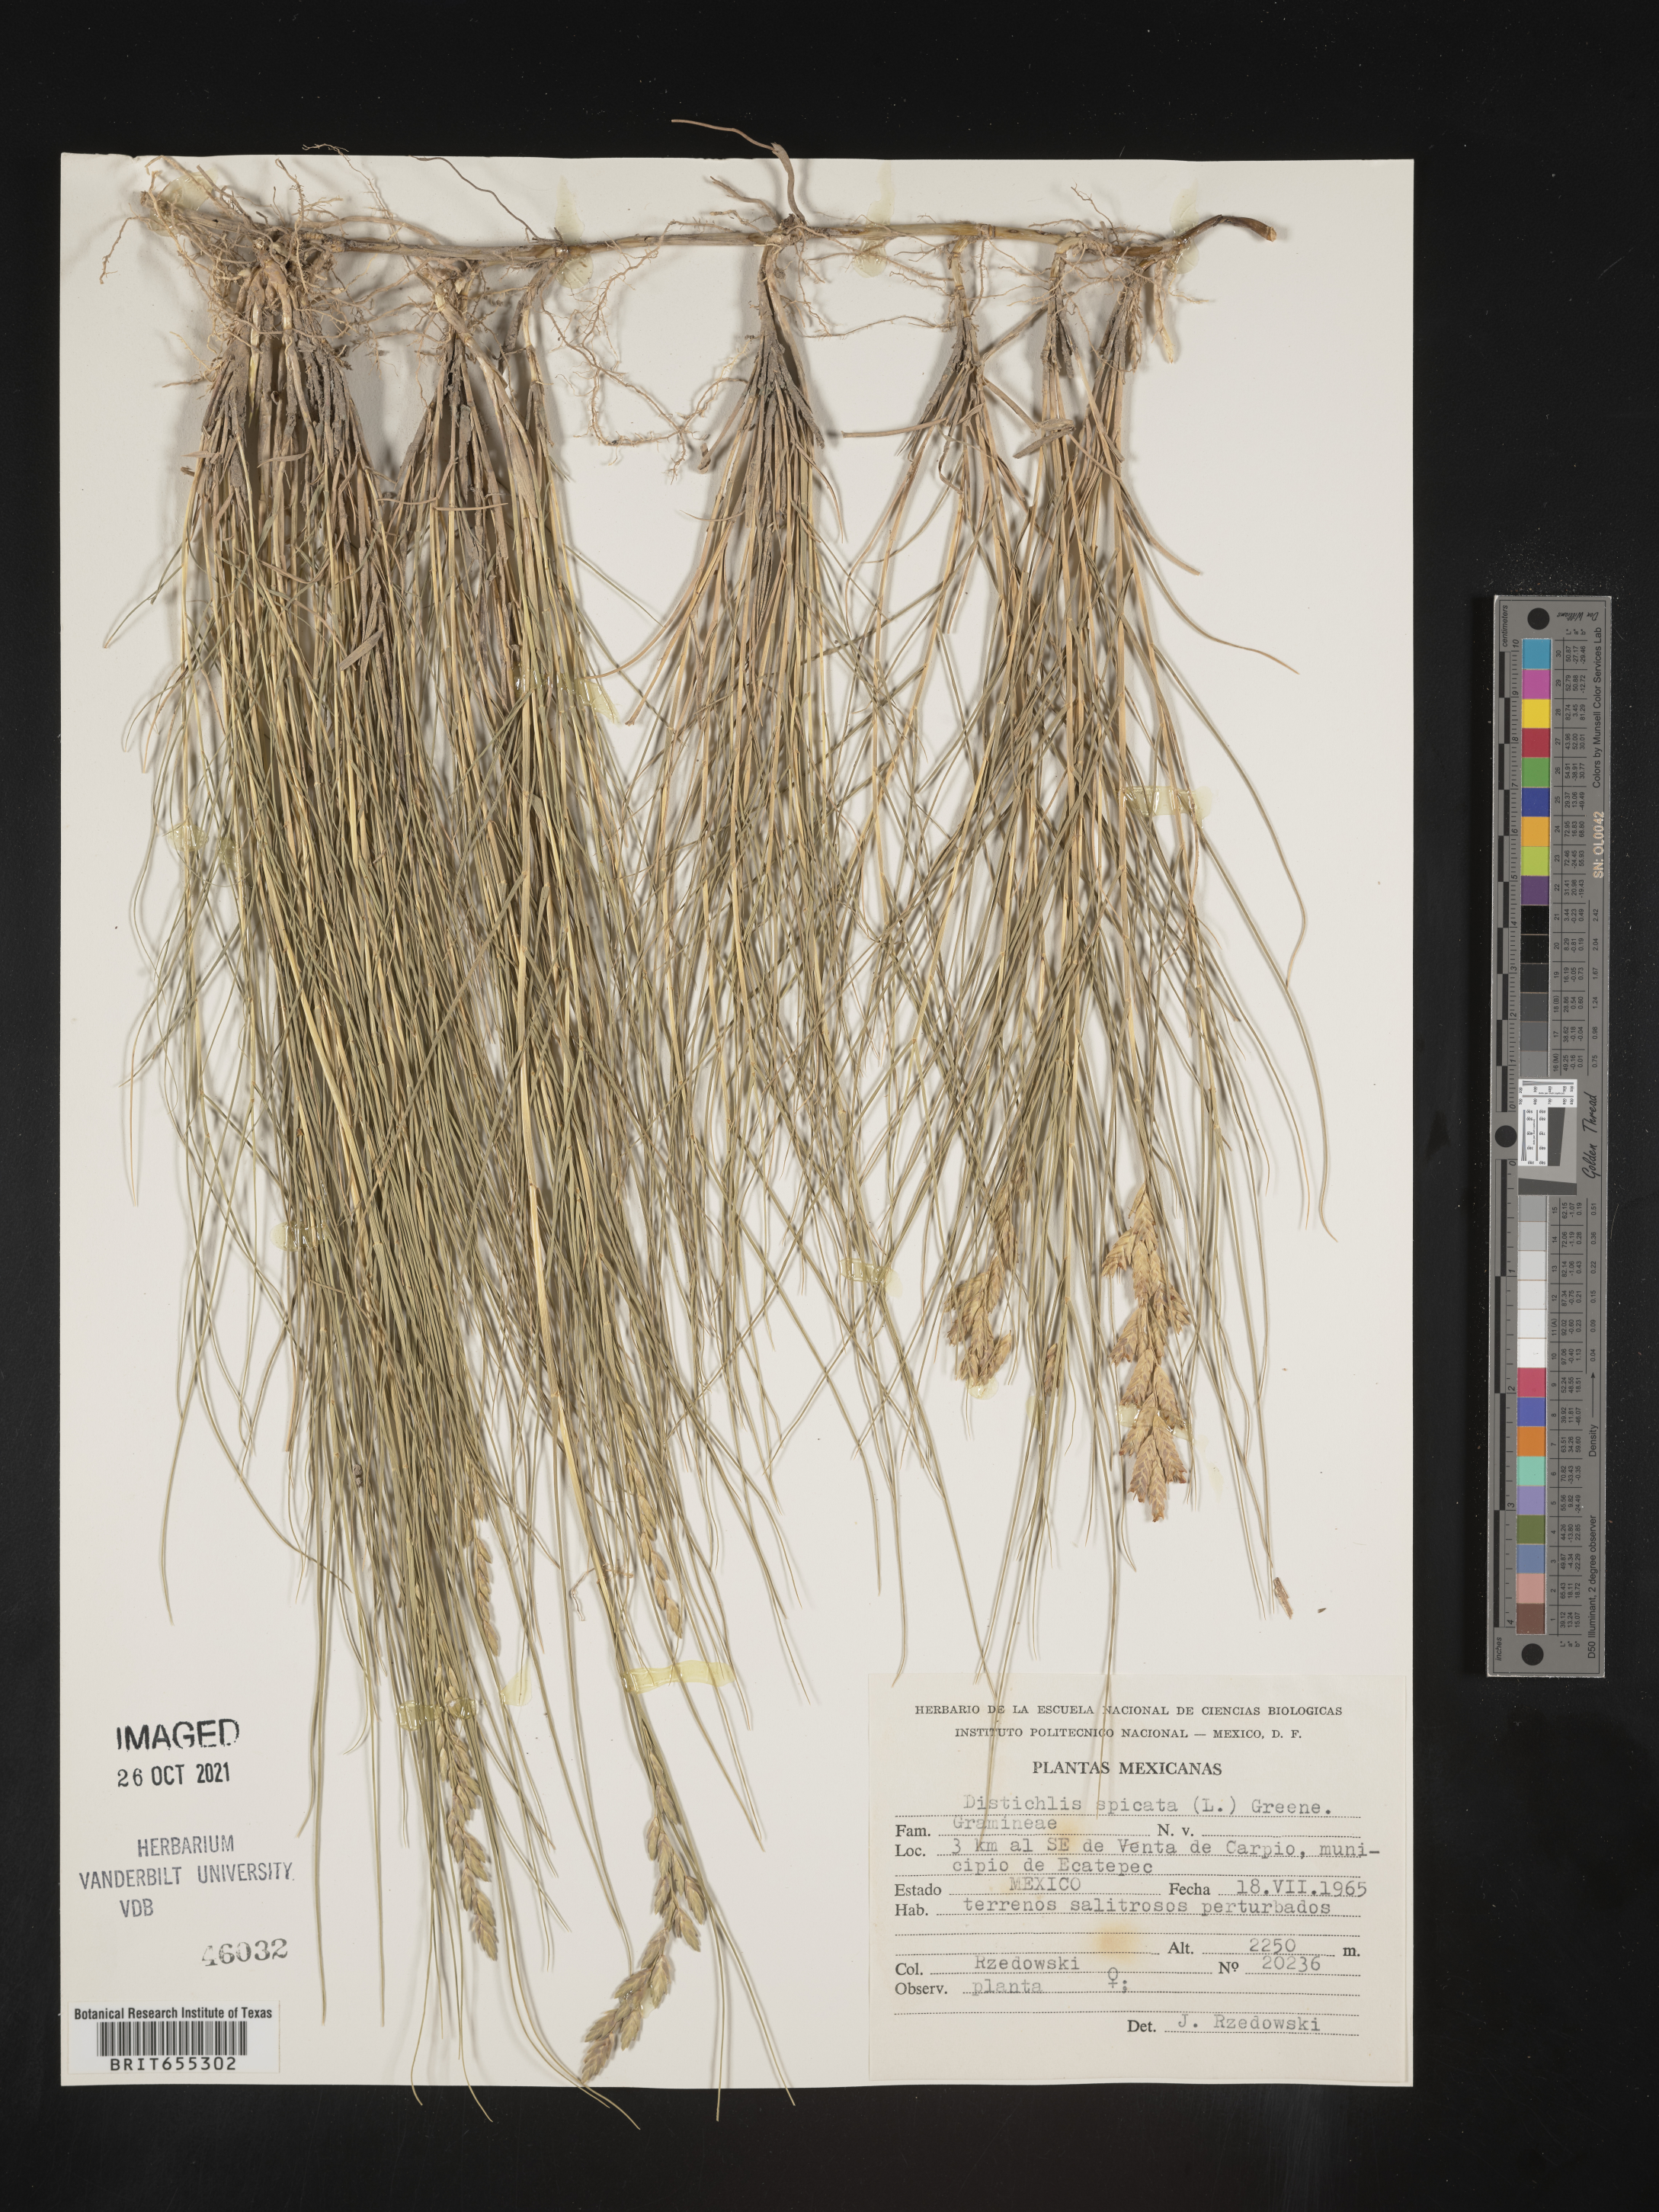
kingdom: Plantae
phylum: Tracheophyta
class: Liliopsida
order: Poales
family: Poaceae
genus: Distichlis
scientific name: Distichlis
